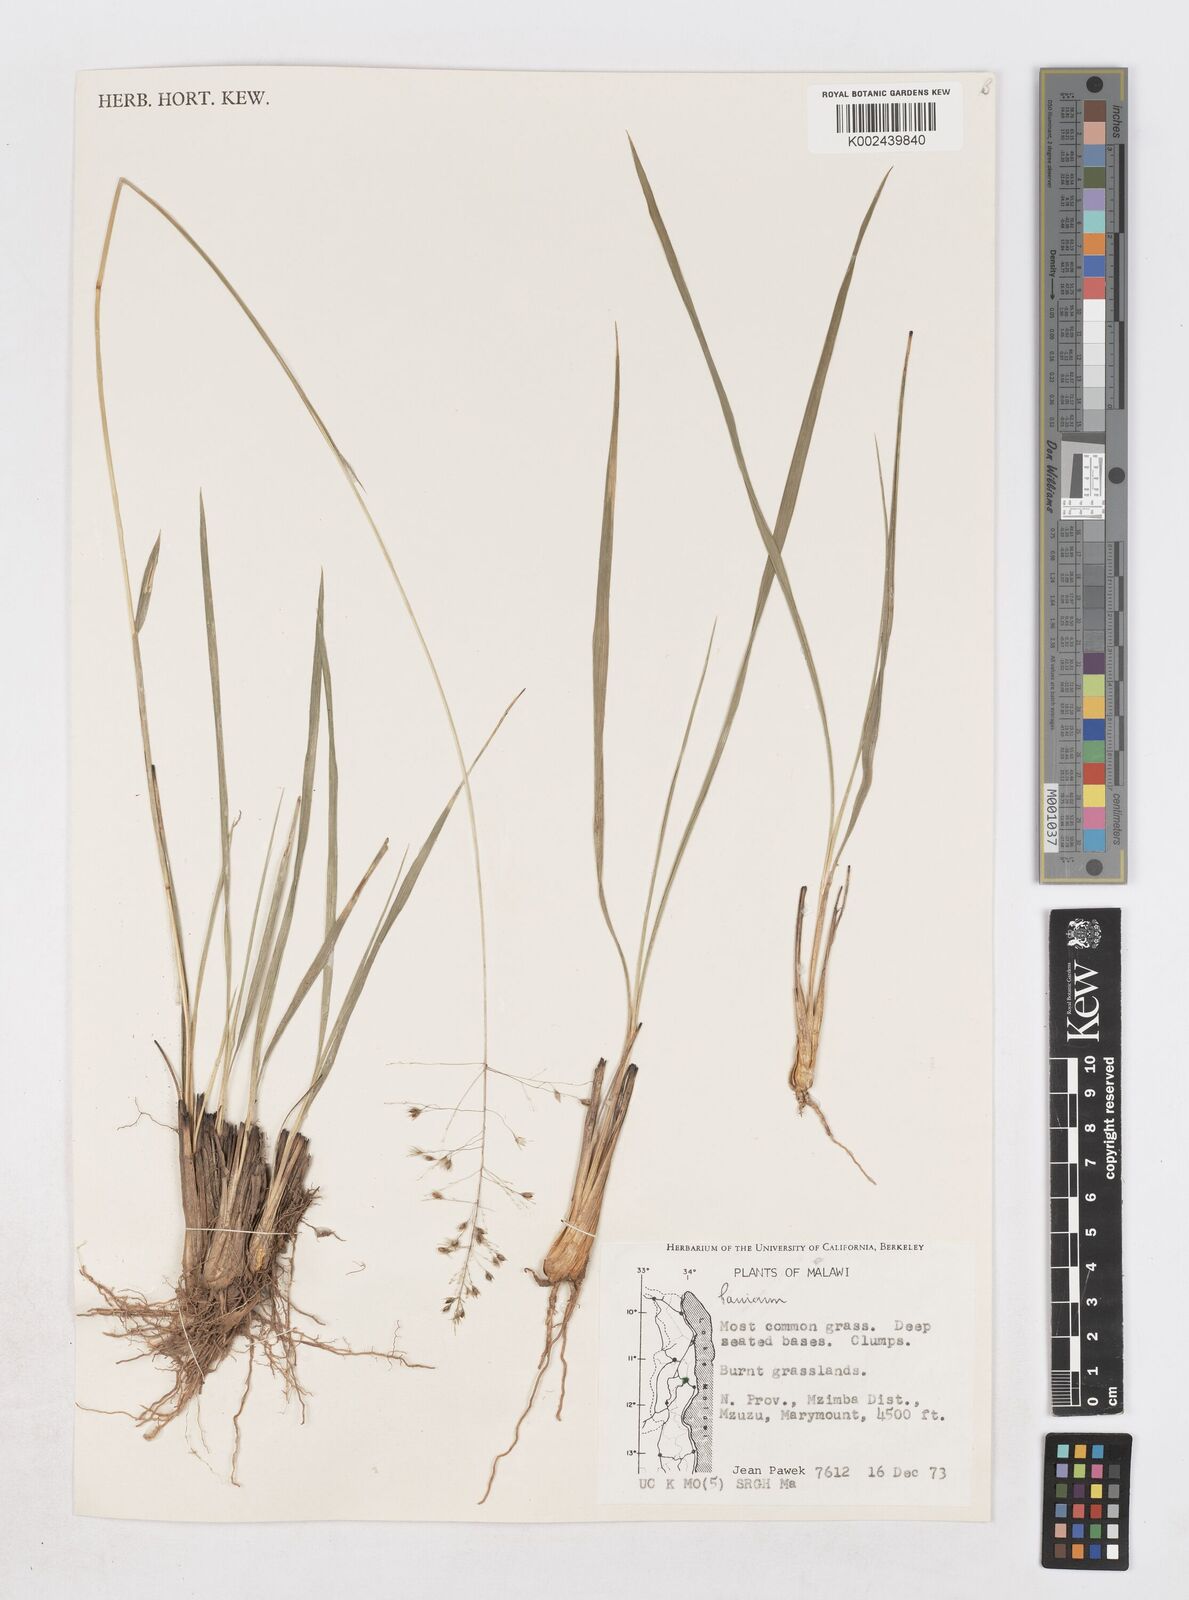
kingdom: Plantae
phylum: Tracheophyta
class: Liliopsida
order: Poales
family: Poaceae
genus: Sporobolus
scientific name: Sporobolus congoensis
